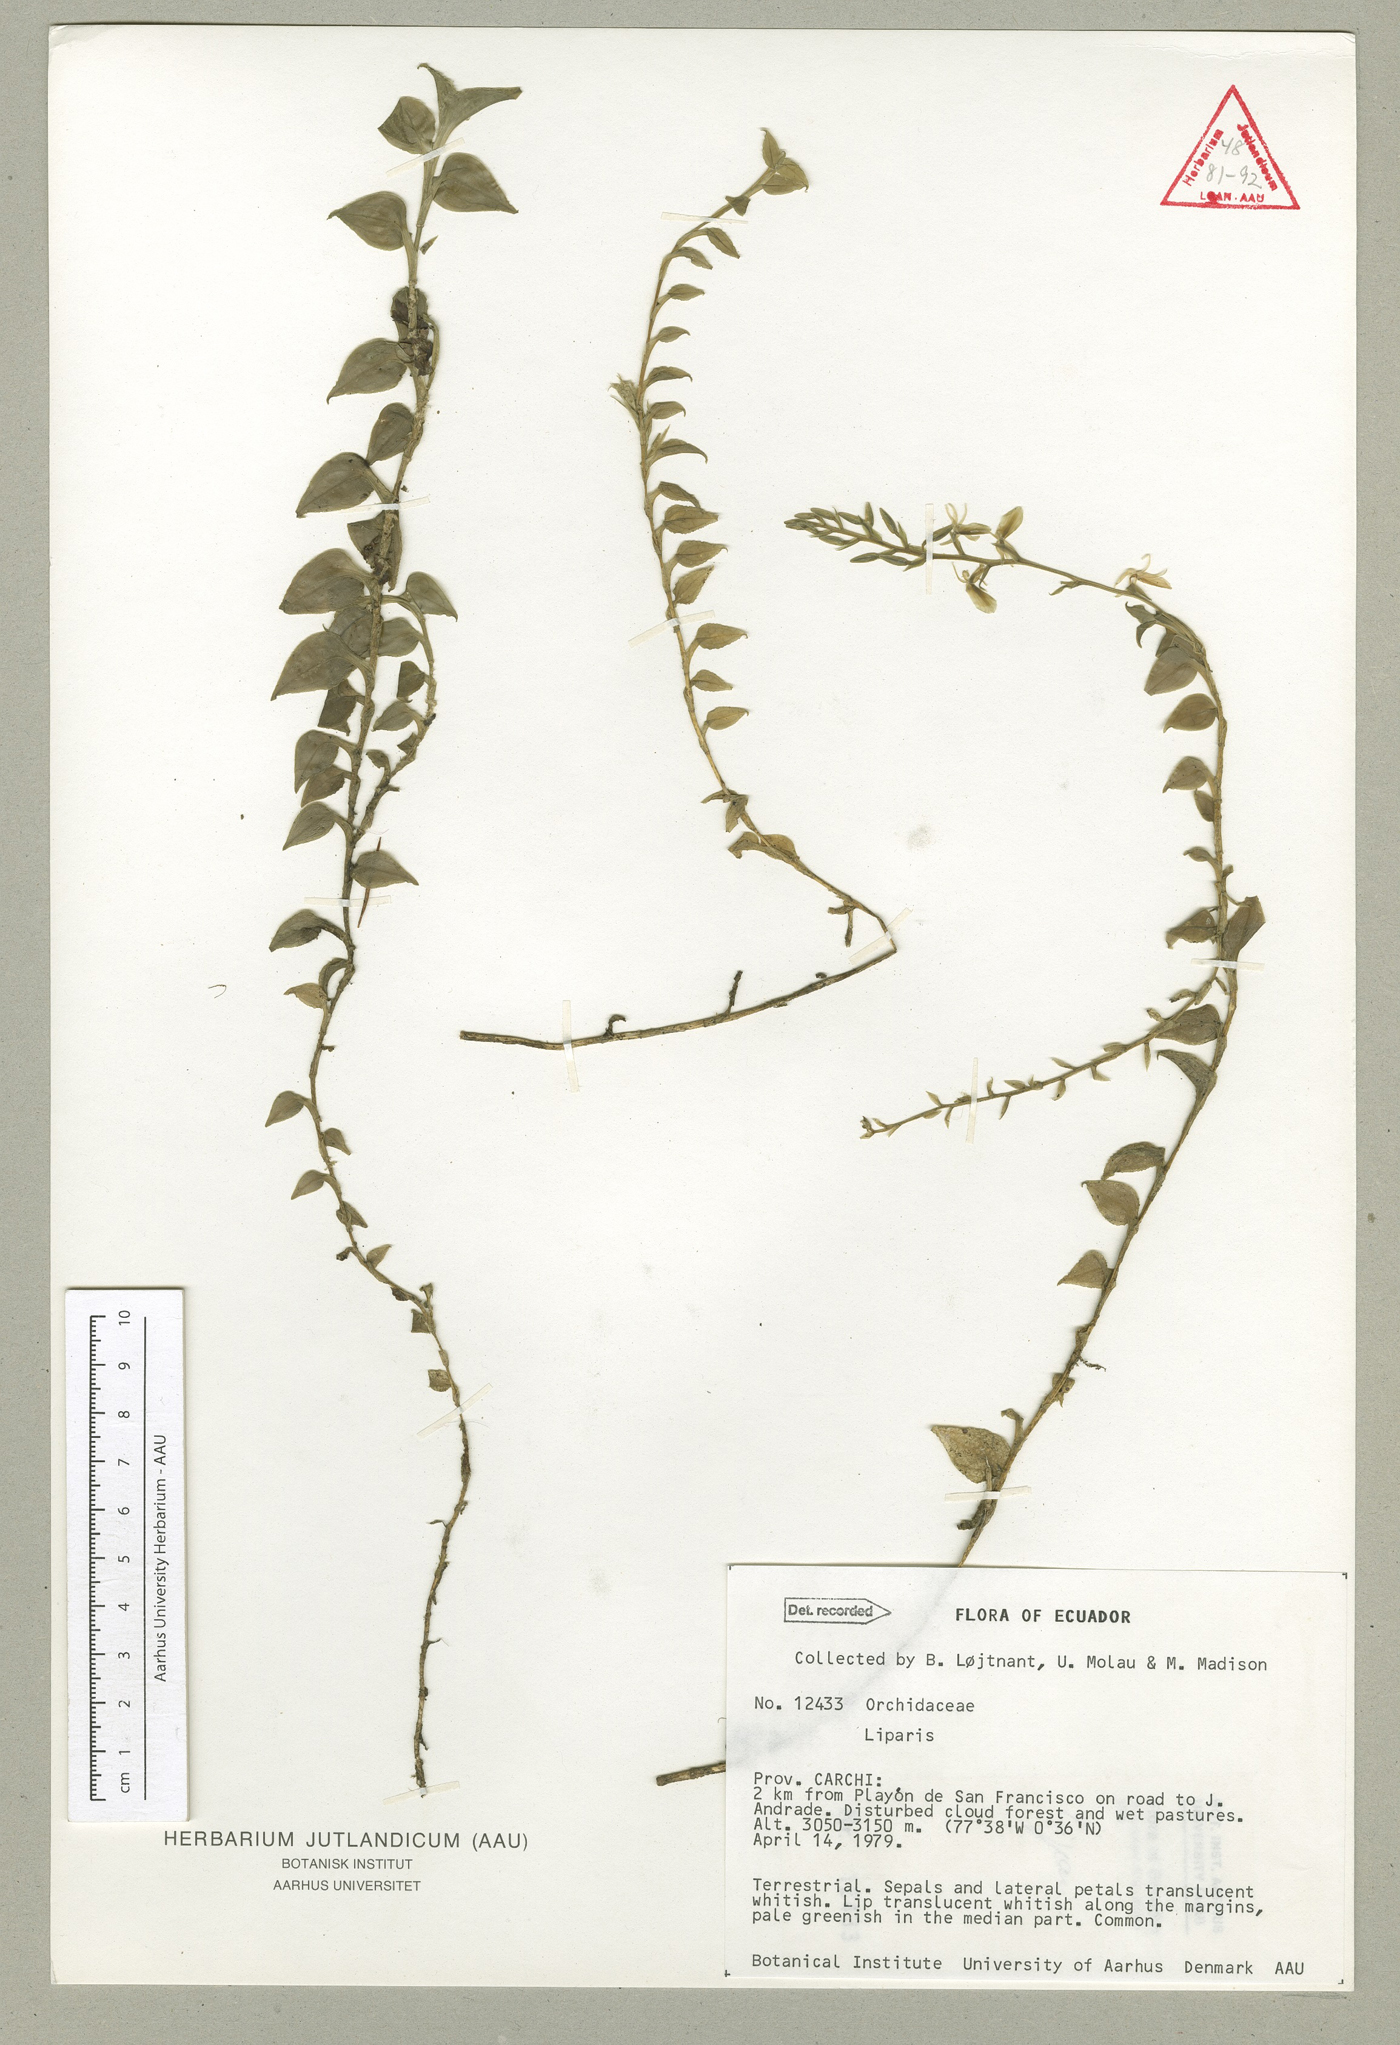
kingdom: Plantae
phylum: Tracheophyta
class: Liliopsida
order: Asparagales
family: Orchidaceae
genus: Liparis
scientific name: Liparis brachystalix
